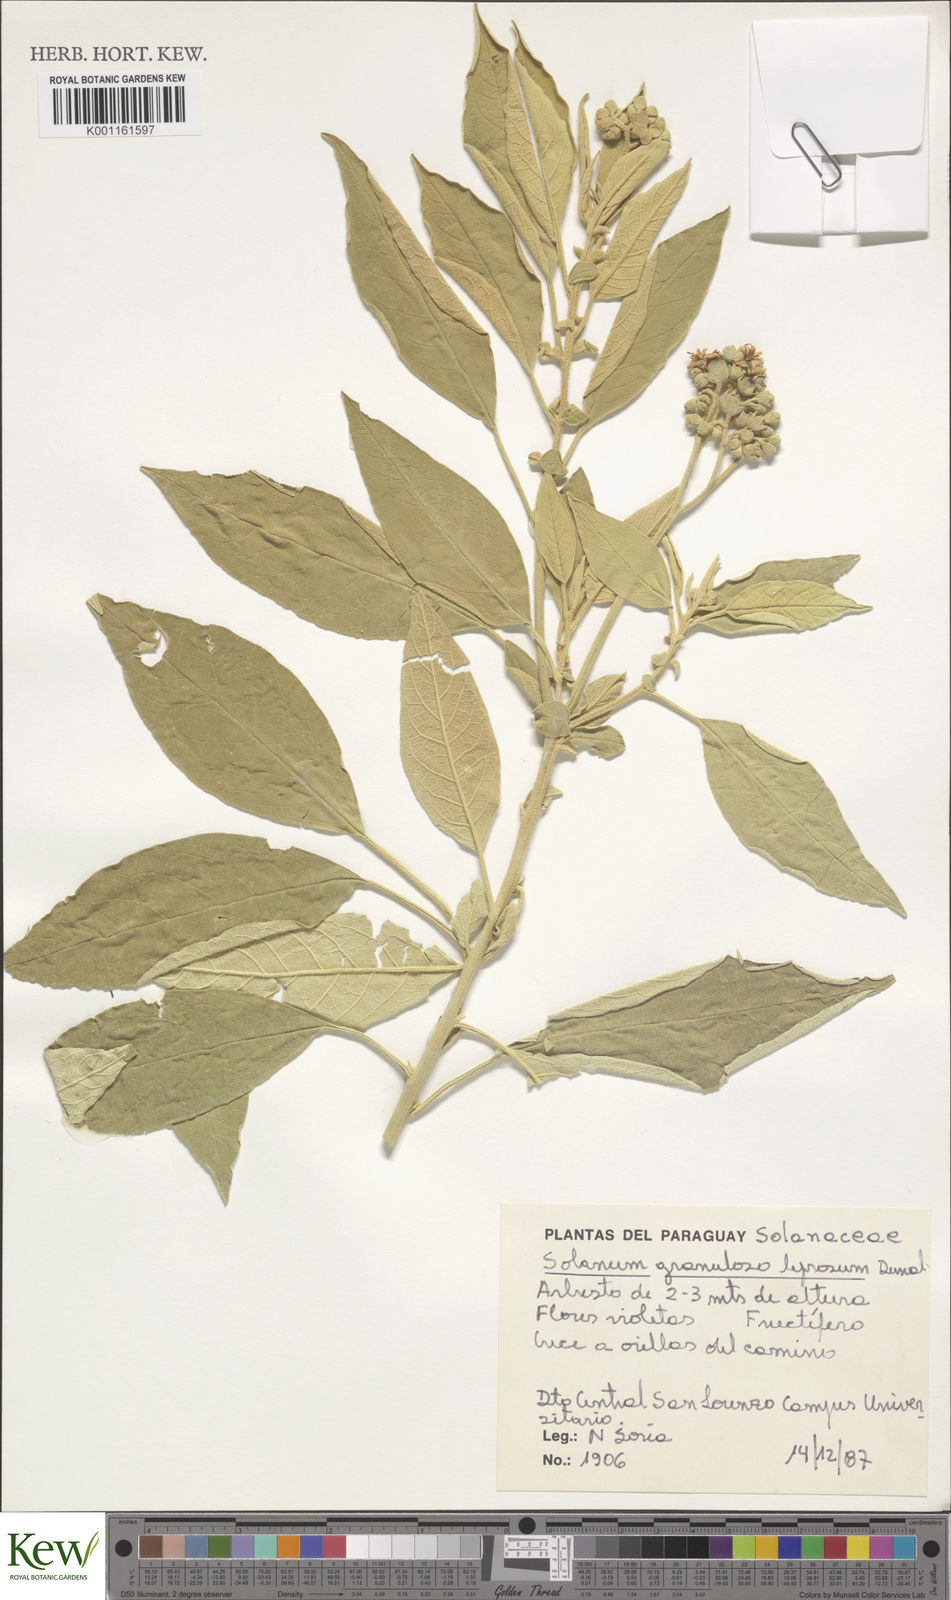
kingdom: Plantae
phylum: Tracheophyta
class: Magnoliopsida
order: Solanales
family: Solanaceae
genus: Solanum
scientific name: Solanum granulosoleprosum
